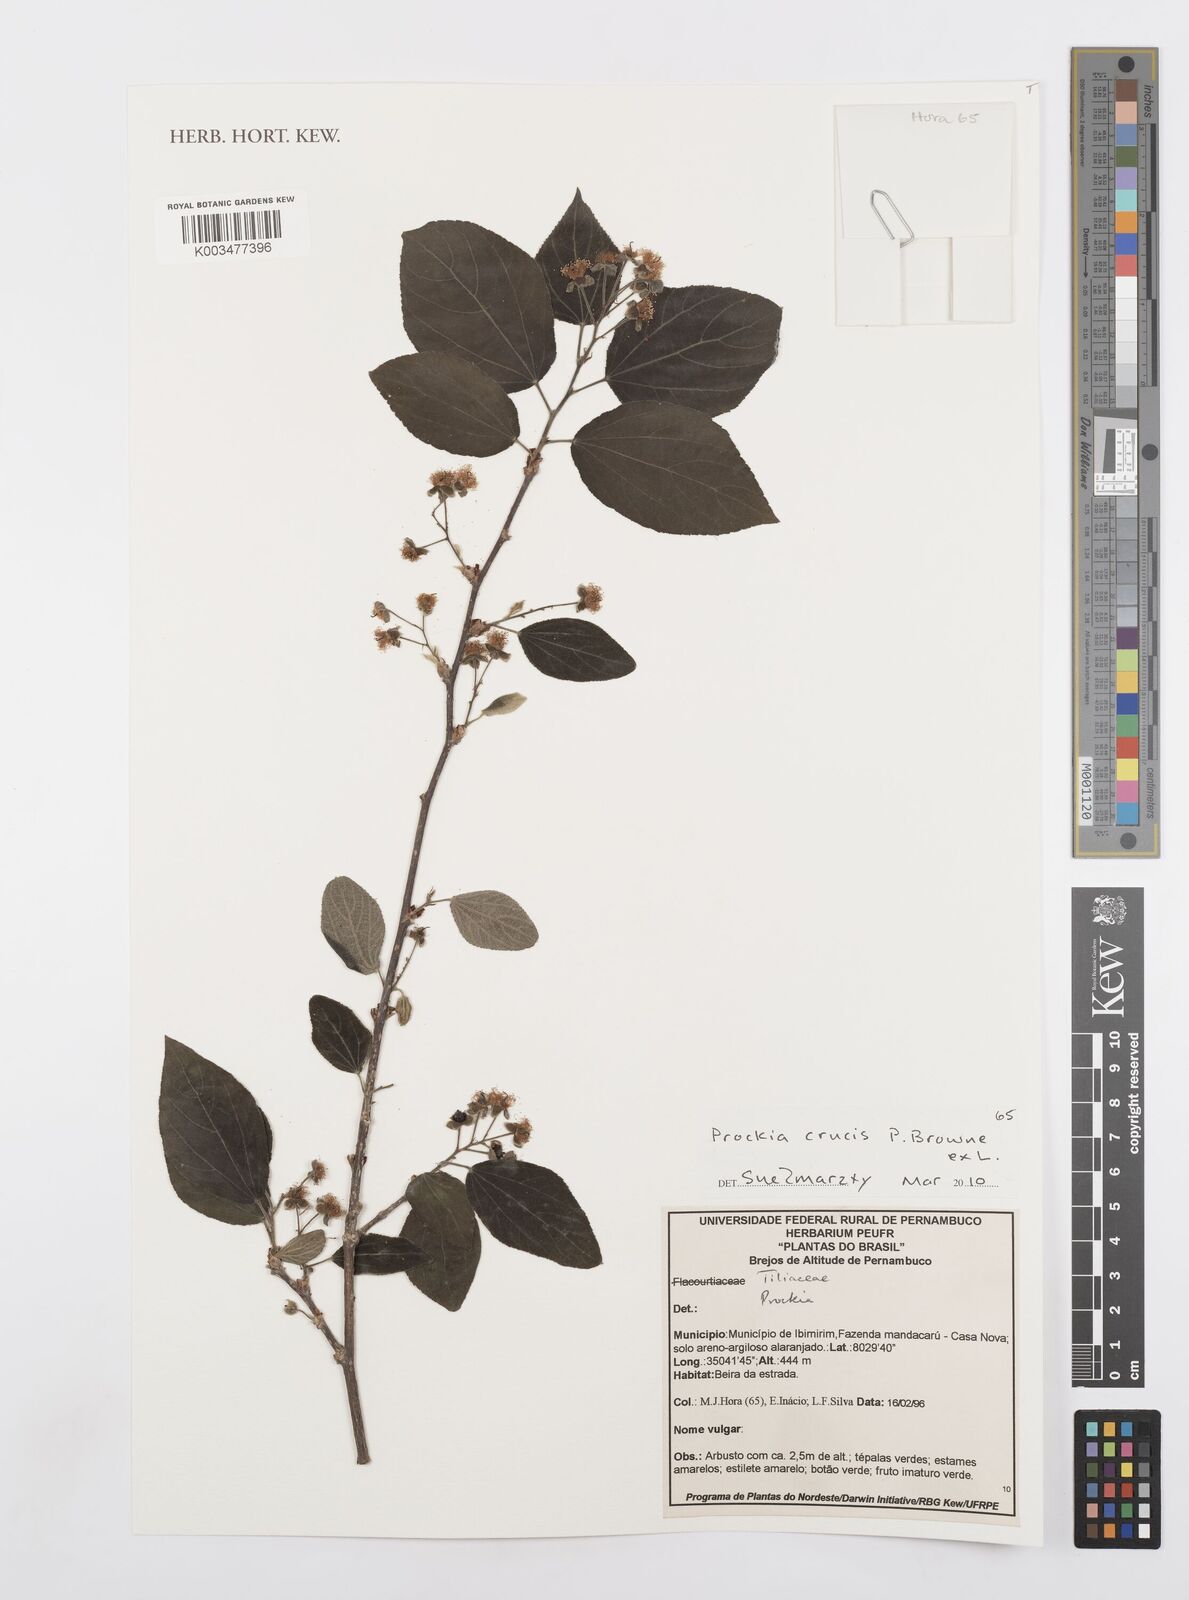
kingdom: Plantae
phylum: Tracheophyta
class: Magnoliopsida
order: Malpighiales
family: Salicaceae
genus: Prockia
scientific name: Prockia crucis
